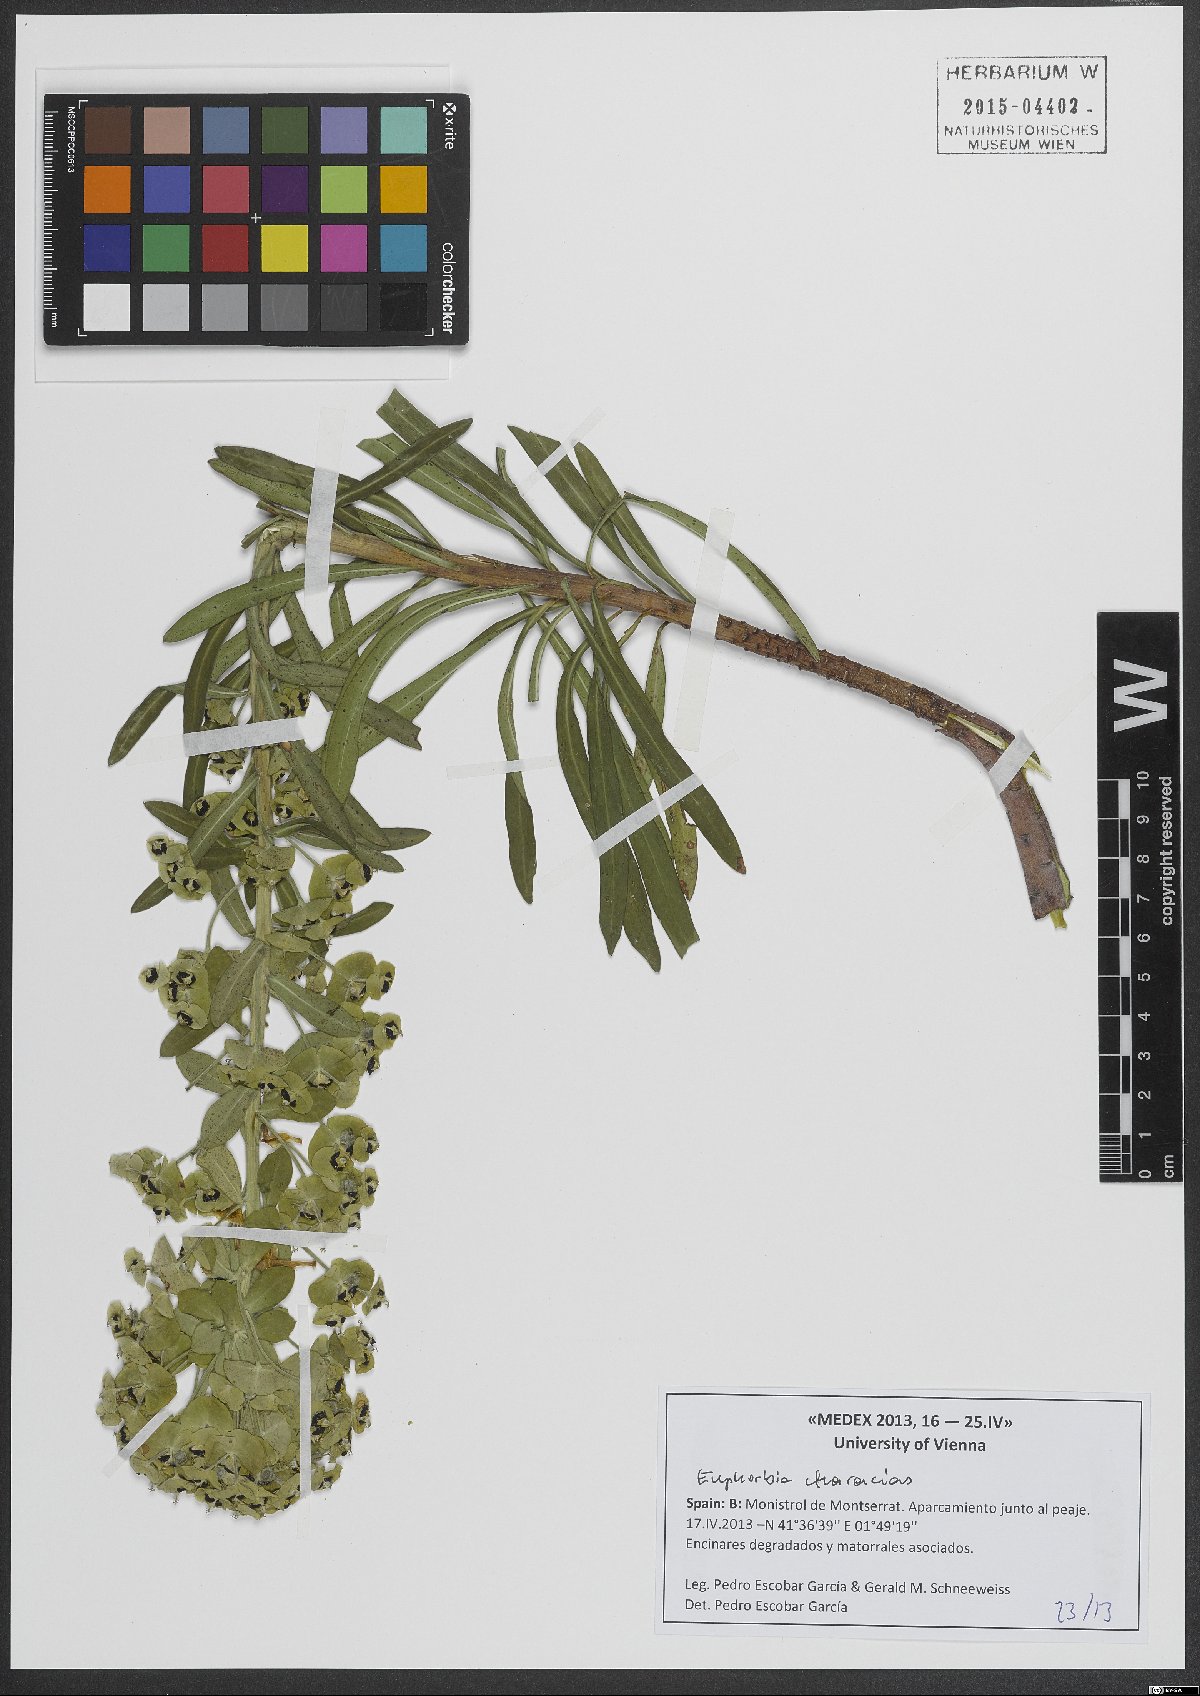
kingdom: Plantae
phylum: Tracheophyta
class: Magnoliopsida
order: Malpighiales
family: Euphorbiaceae
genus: Euphorbia
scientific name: Euphorbia characias
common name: Mediterranean spurge
